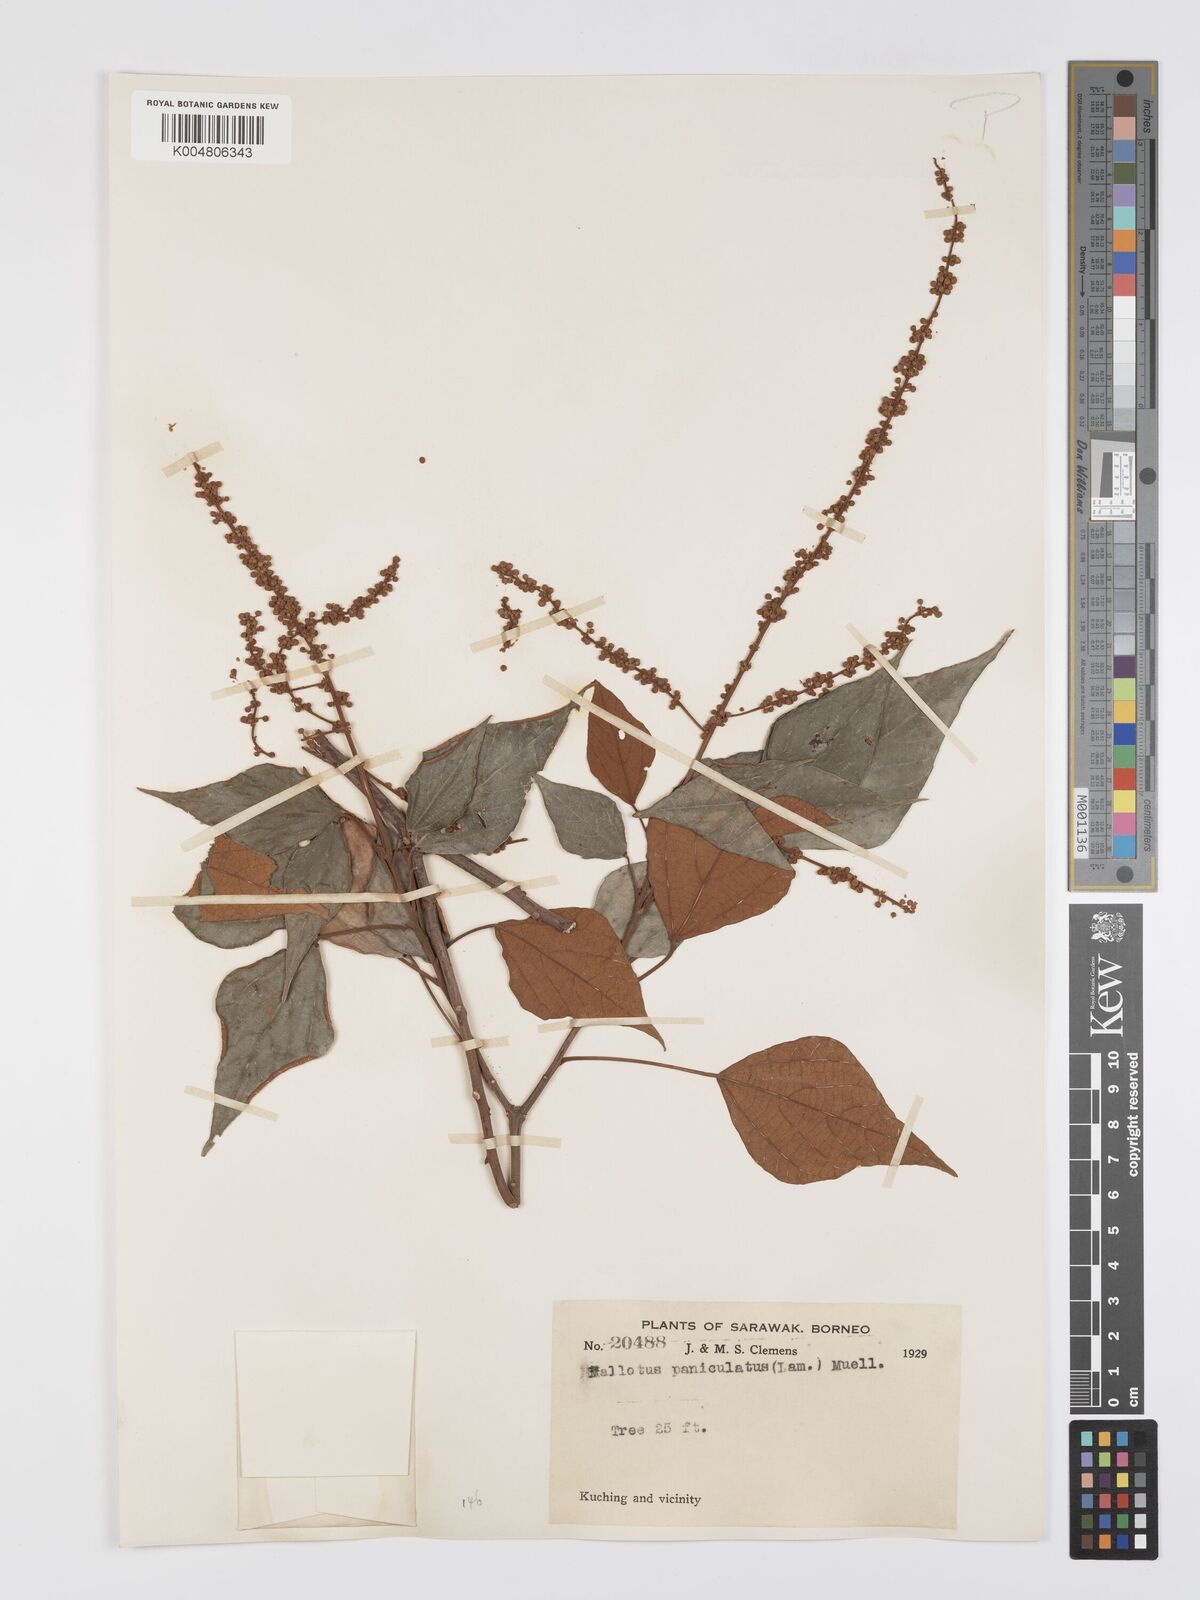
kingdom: Plantae
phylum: Tracheophyta
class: Magnoliopsida
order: Malpighiales
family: Euphorbiaceae
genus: Mallotus
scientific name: Mallotus paniculatus
